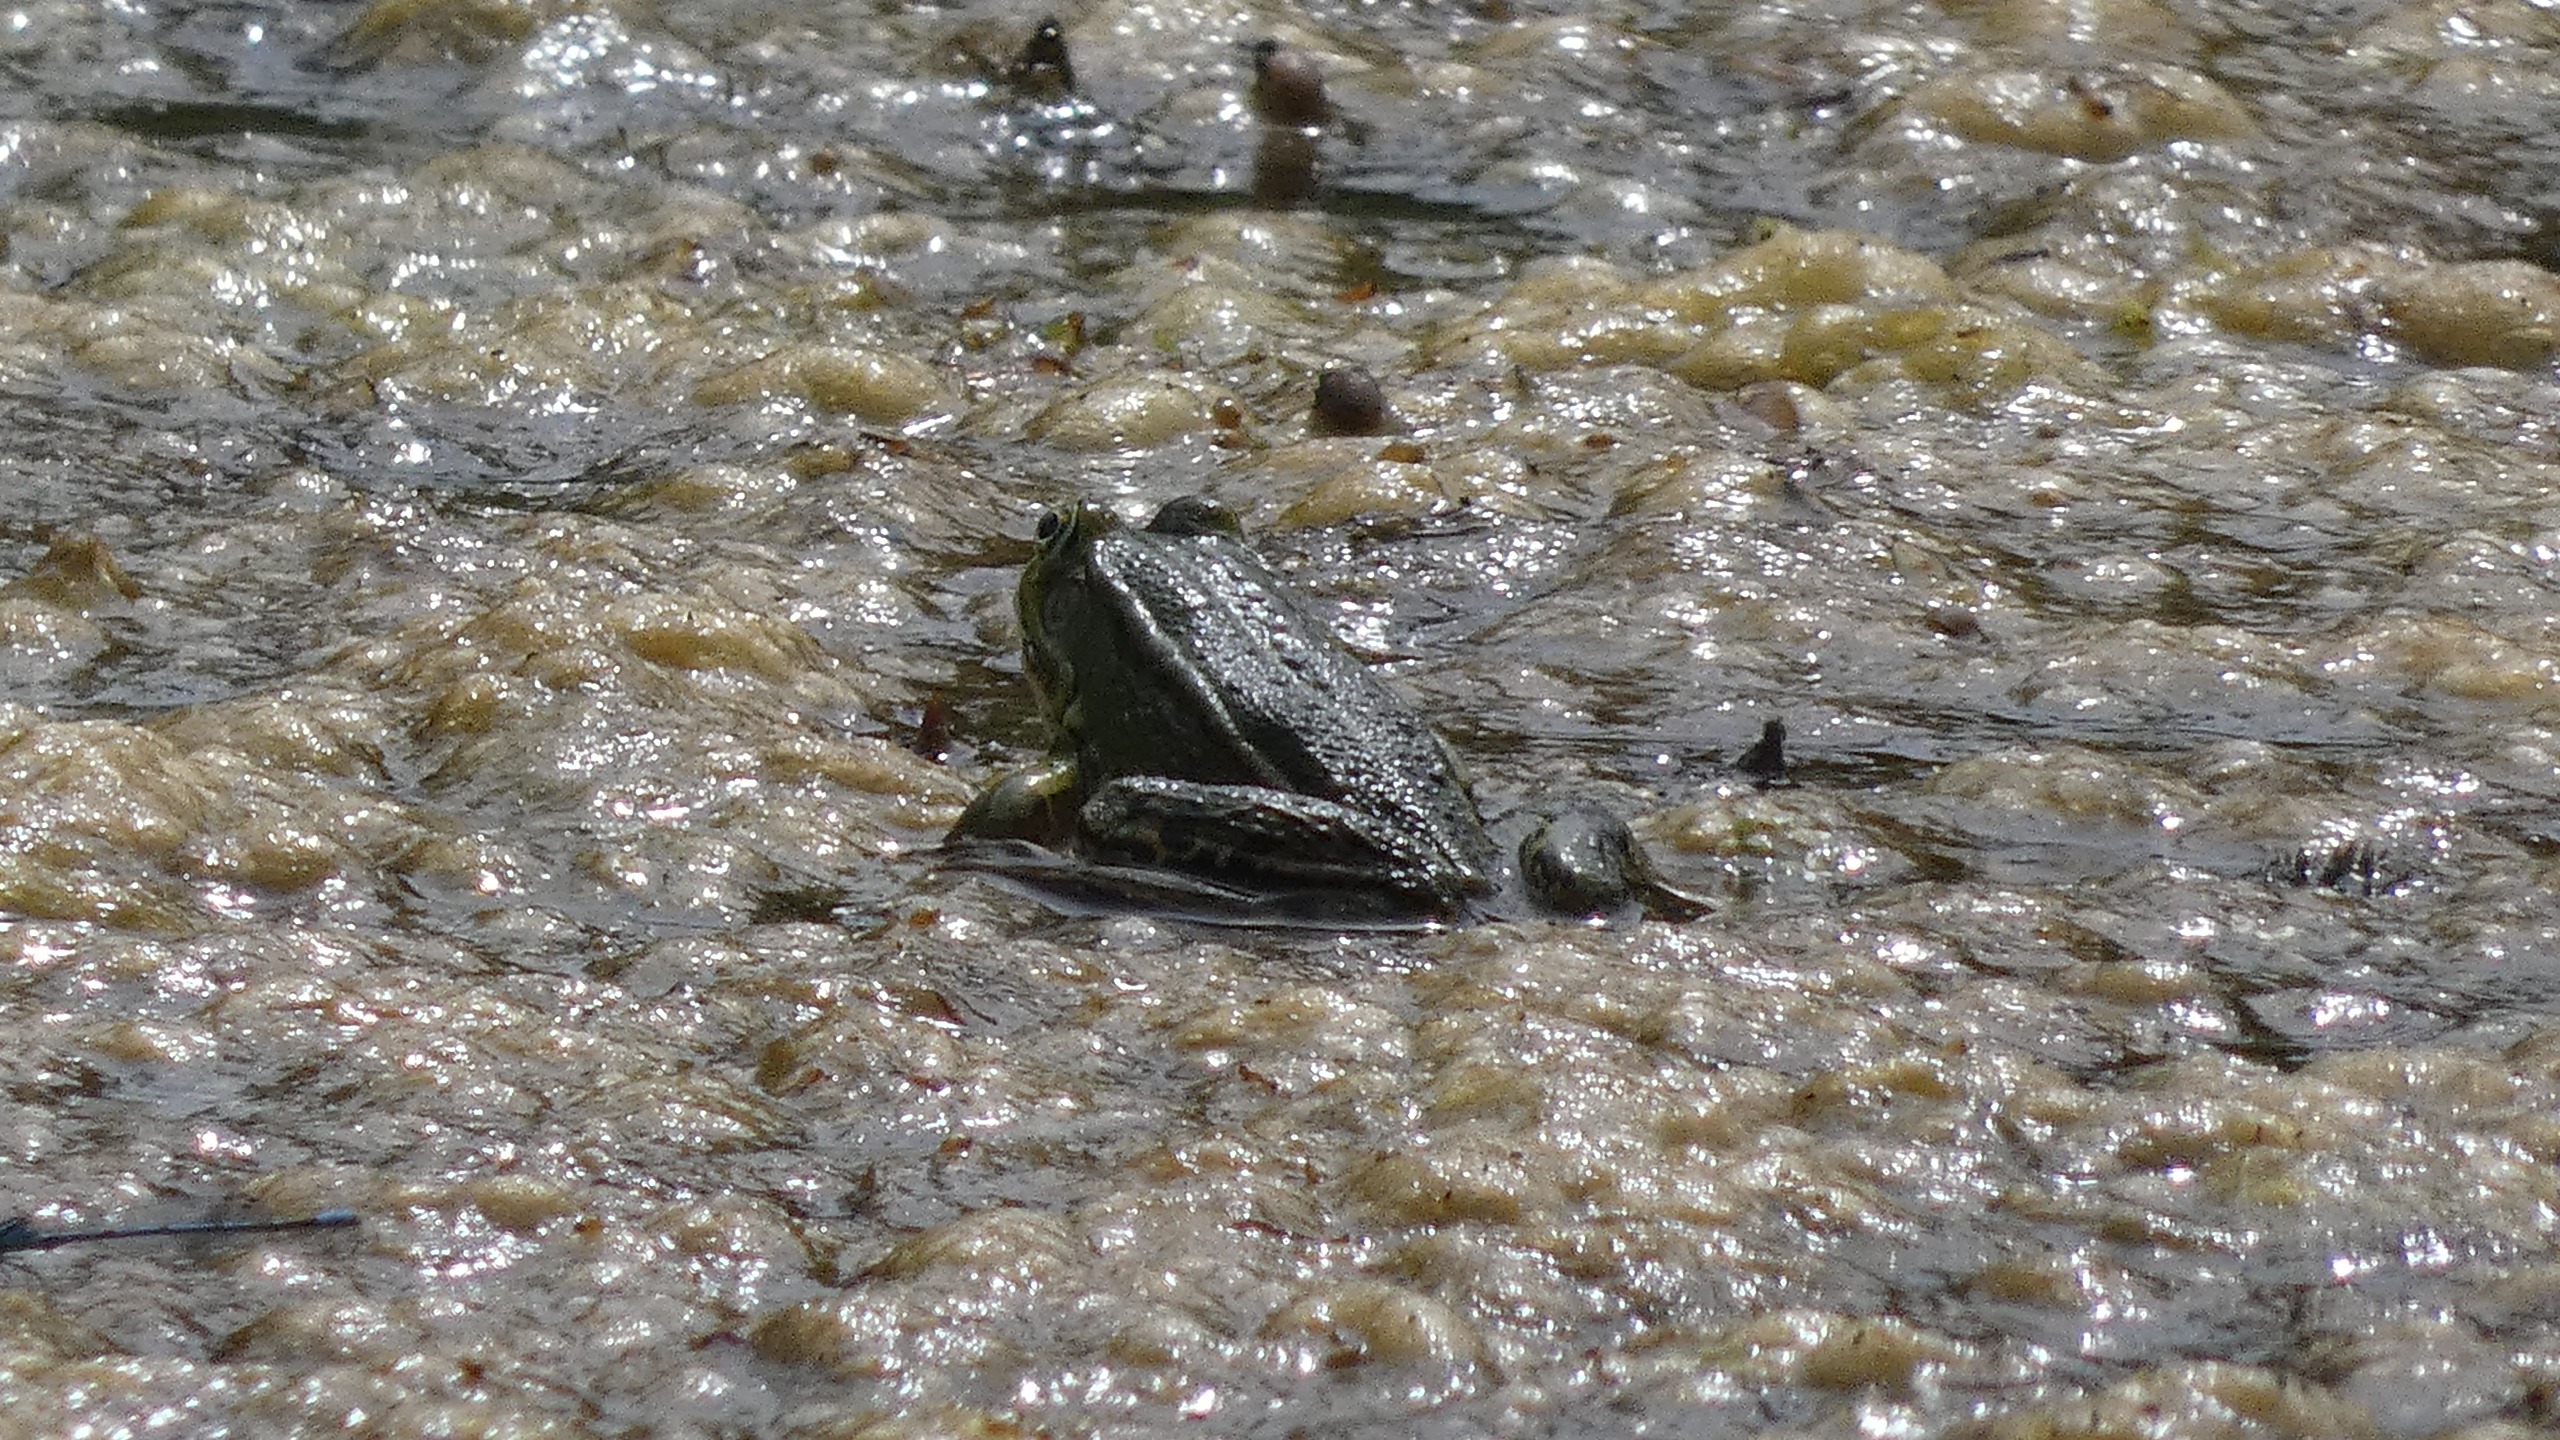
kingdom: Animalia
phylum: Chordata
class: Amphibia
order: Anura
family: Ranidae
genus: Pelophylax
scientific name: Pelophylax lessonae
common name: Grøn frø
